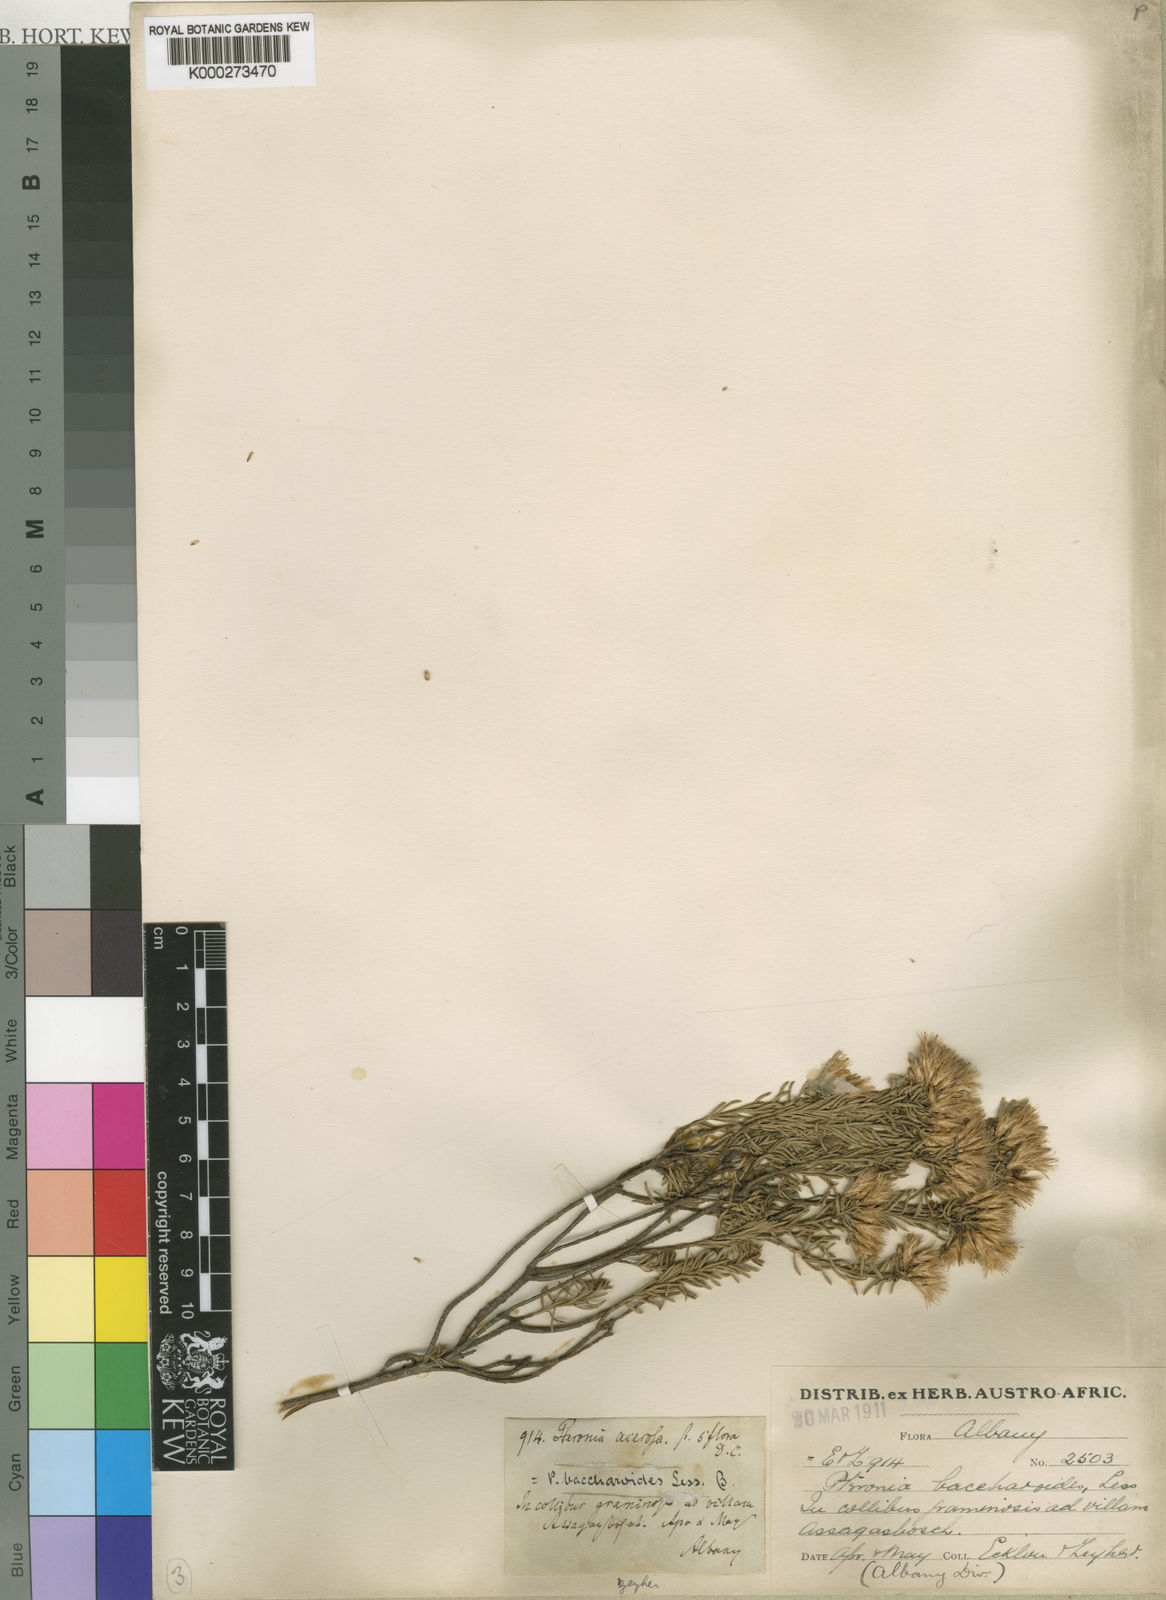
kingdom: Plantae
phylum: Tracheophyta
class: Magnoliopsida
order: Asterales
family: Asteraceae
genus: Pteronia
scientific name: Pteronia teretifolia
